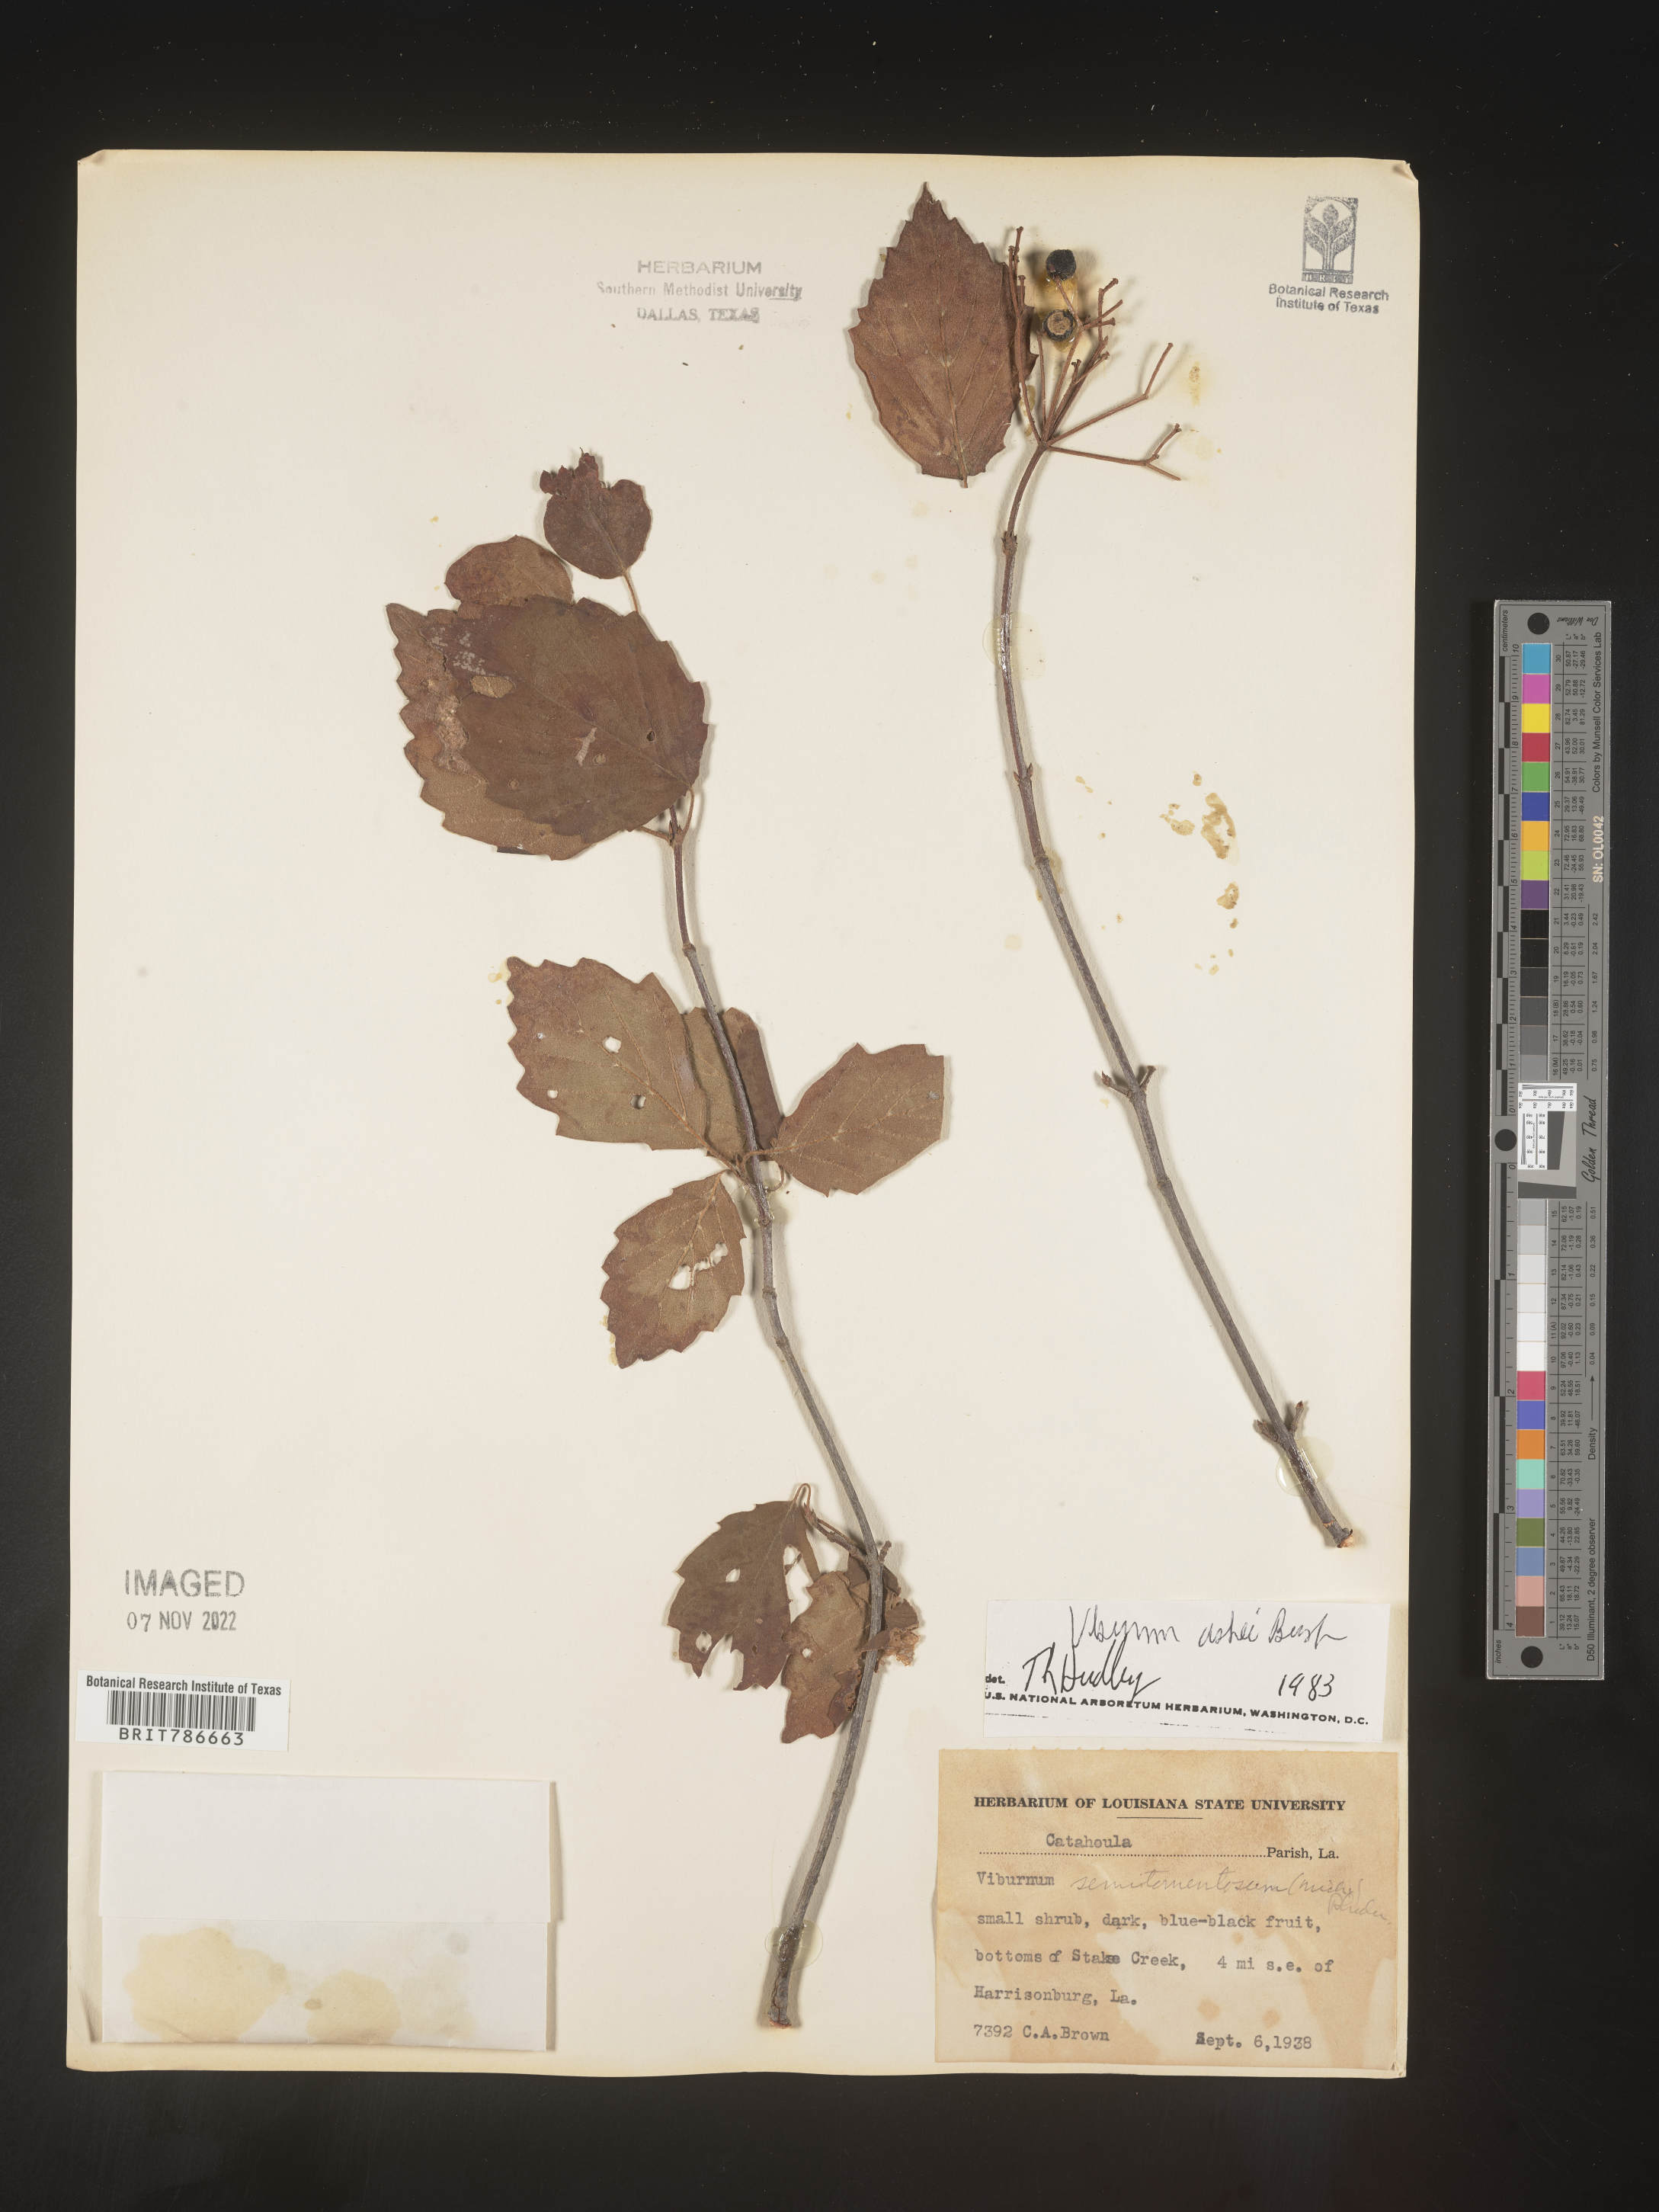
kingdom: Plantae
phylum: Tracheophyta
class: Magnoliopsida
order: Dipsacales
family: Viburnaceae
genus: Viburnum
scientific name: Viburnum recognitum
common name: Northern arrow-wood
